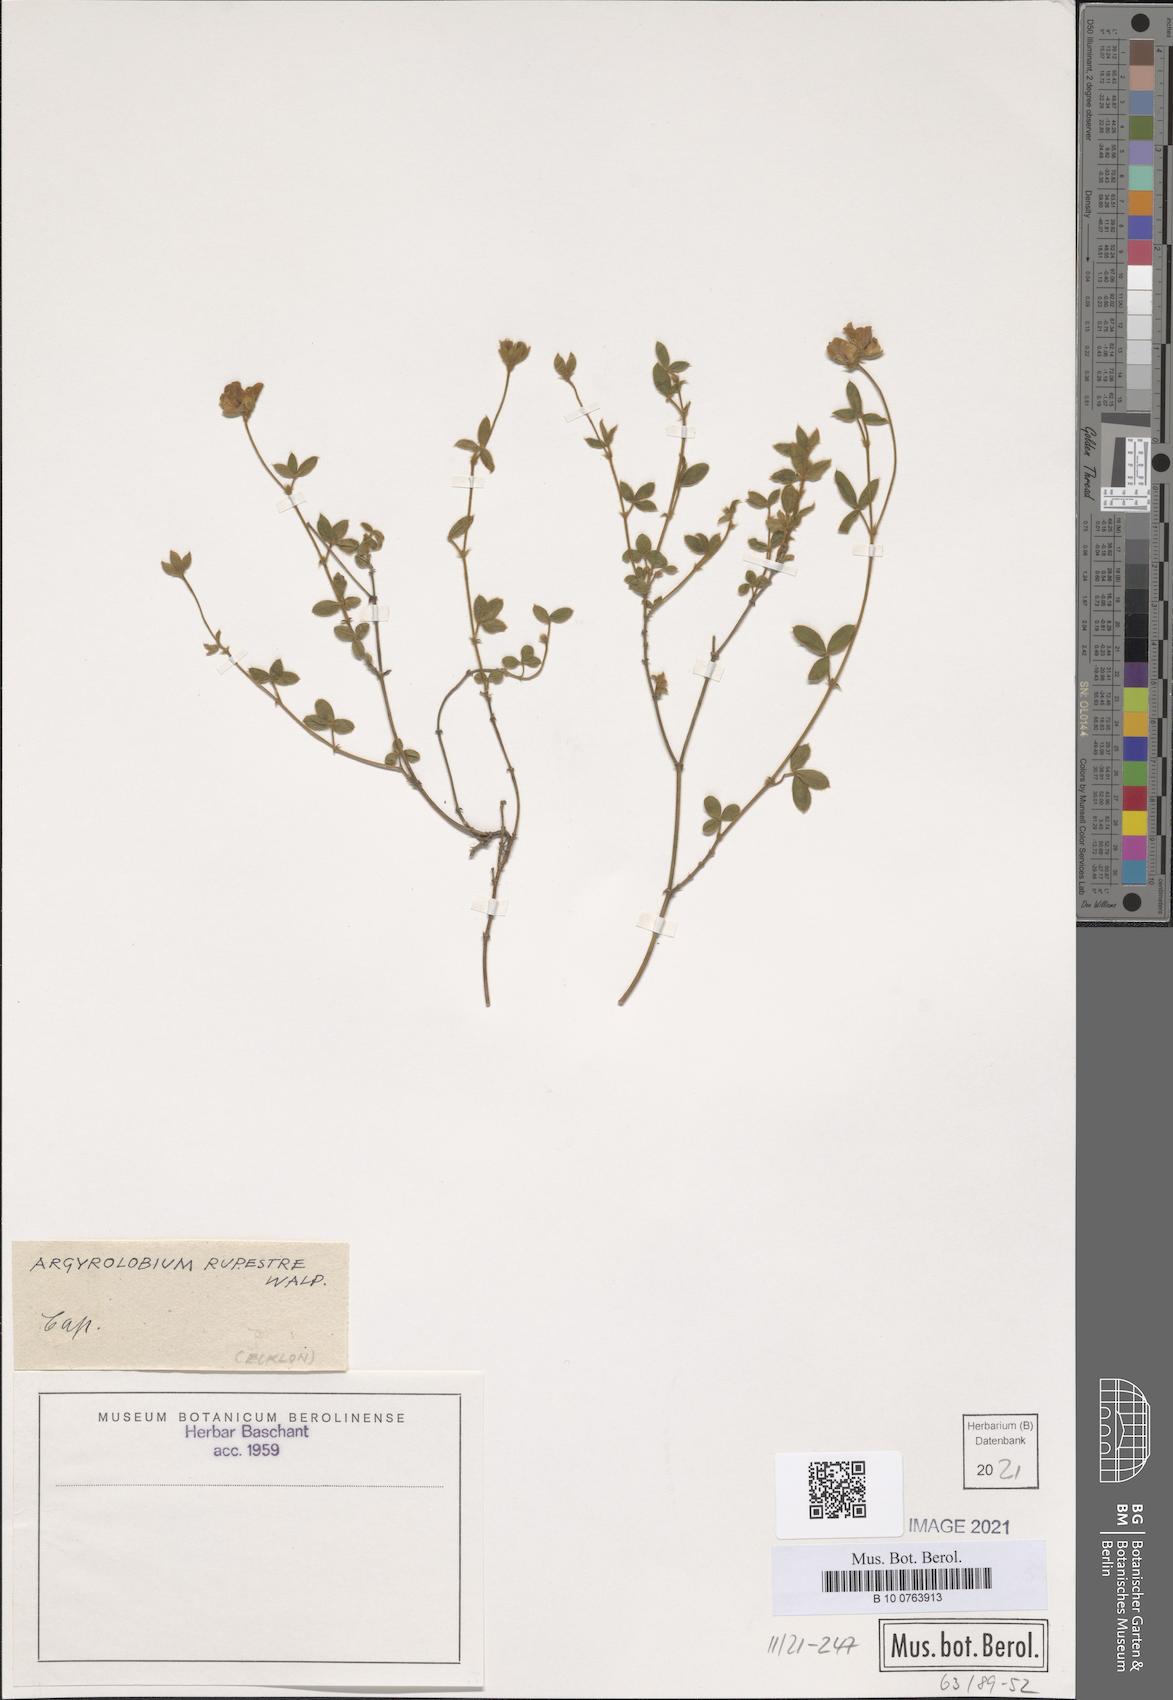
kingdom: Plantae
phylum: Tracheophyta
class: Magnoliopsida
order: Fabales
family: Fabaceae
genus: Argyrolobium
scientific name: Argyrolobium rupestre
